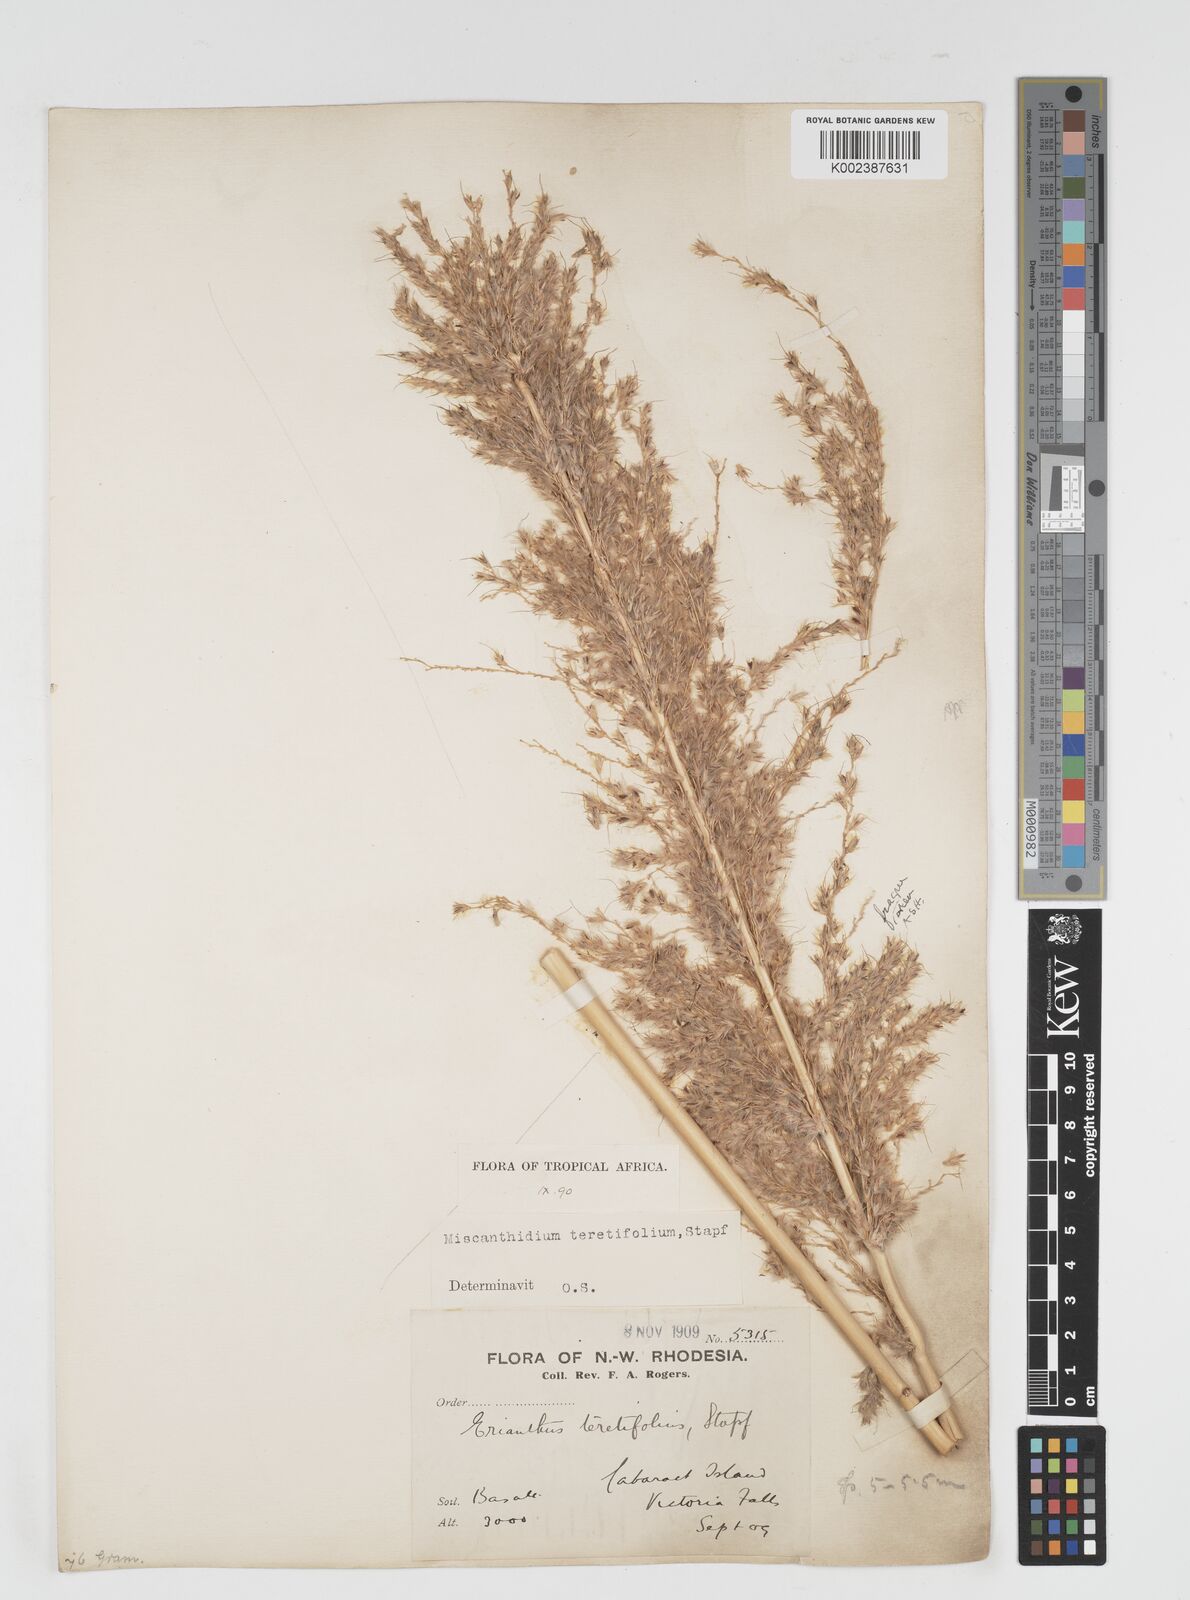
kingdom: Plantae
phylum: Tracheophyta
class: Liliopsida
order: Poales
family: Poaceae
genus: Miscanthidium
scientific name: Miscanthidium junceum
